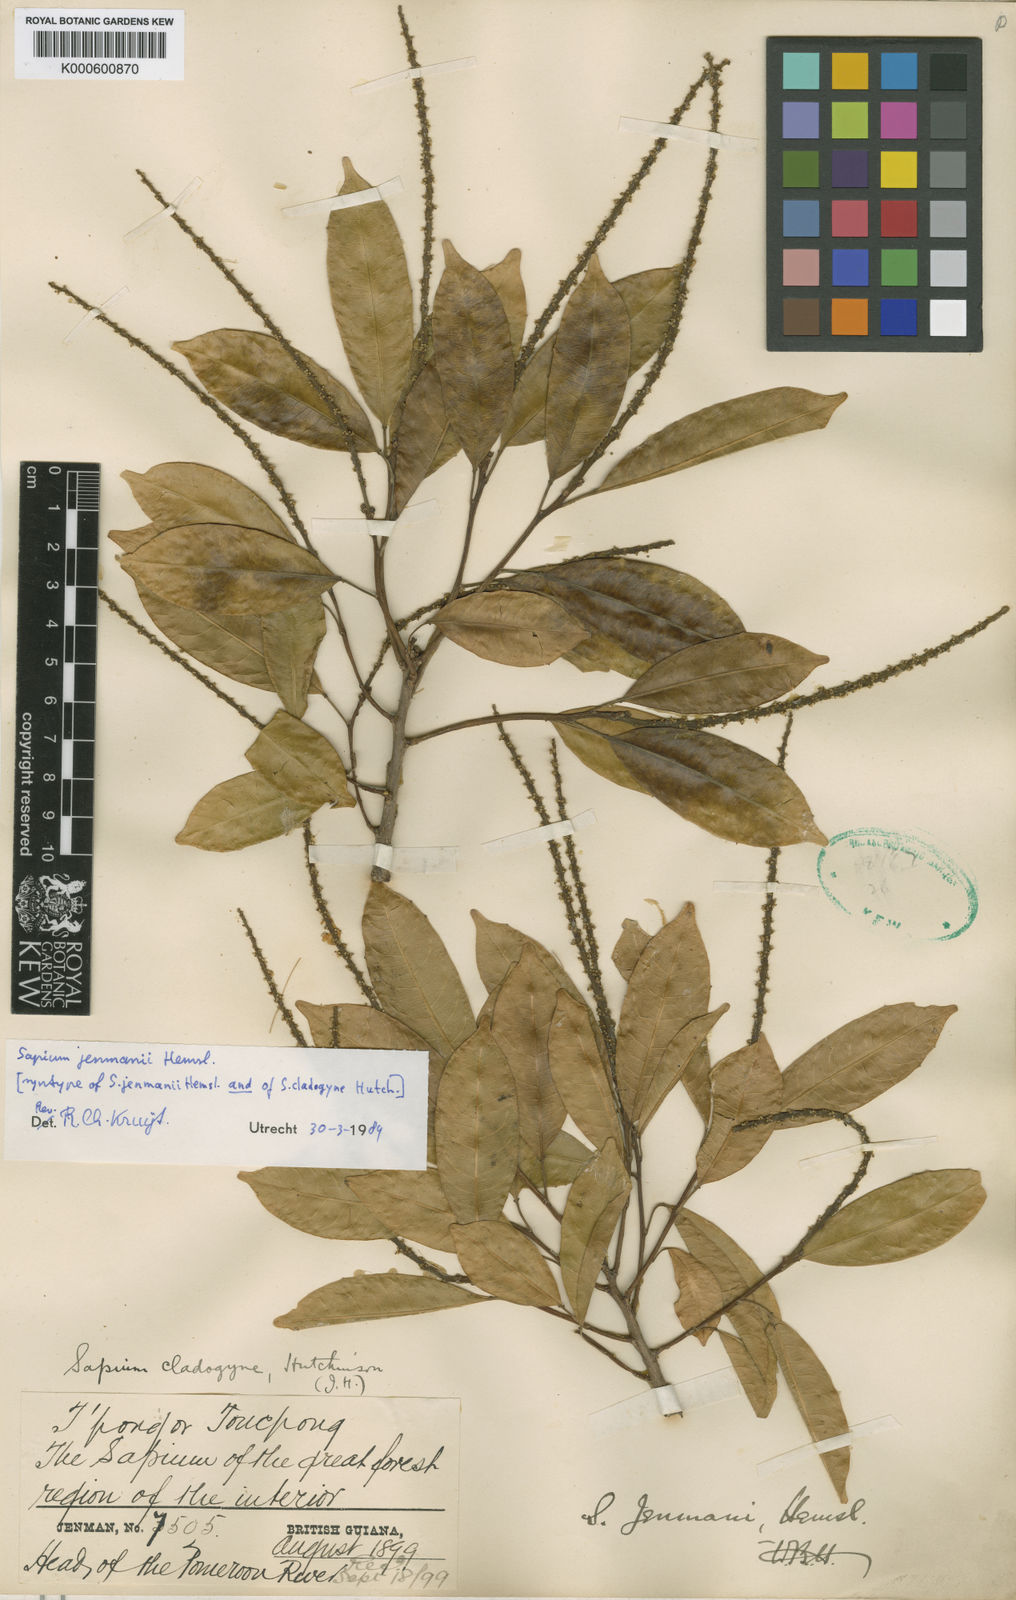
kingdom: Plantae
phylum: Tracheophyta
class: Magnoliopsida
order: Malpighiales
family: Euphorbiaceae
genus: Sapium
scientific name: Sapium jenmannii
